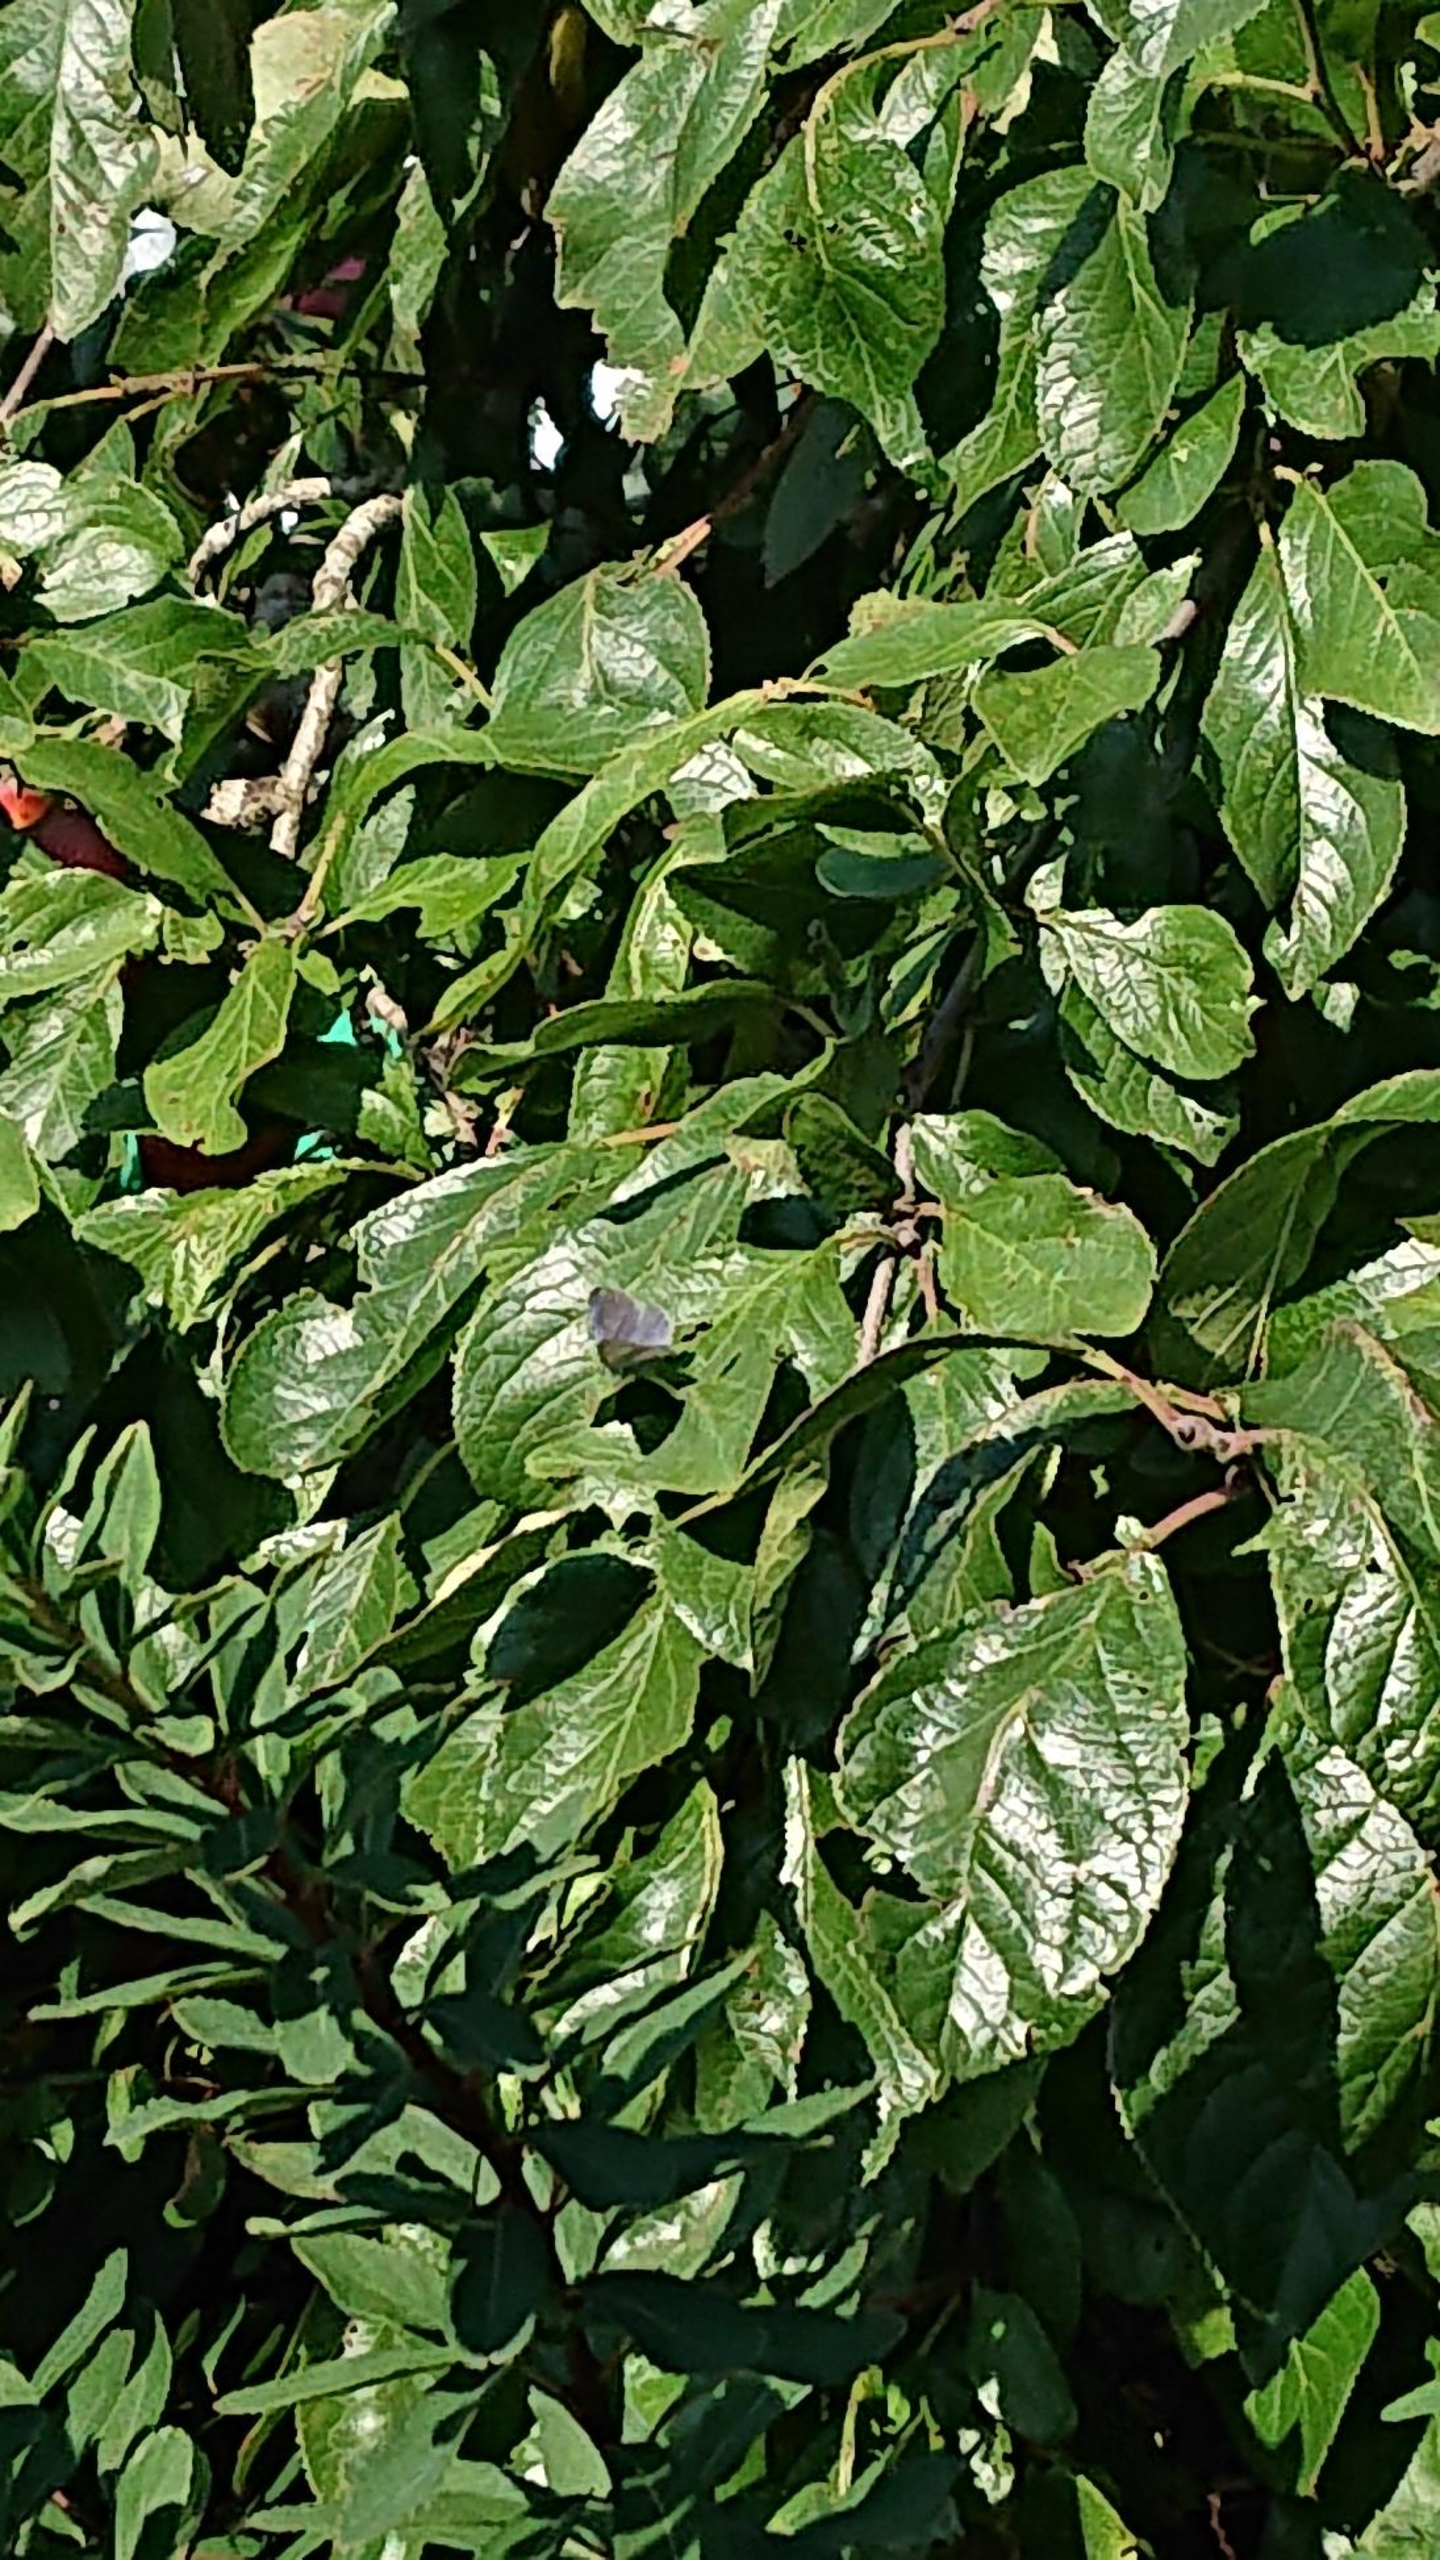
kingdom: Animalia
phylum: Arthropoda
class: Insecta
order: Lepidoptera
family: Lycaenidae
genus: Celastrina
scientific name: Celastrina argiolus
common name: Skovblåfugl
